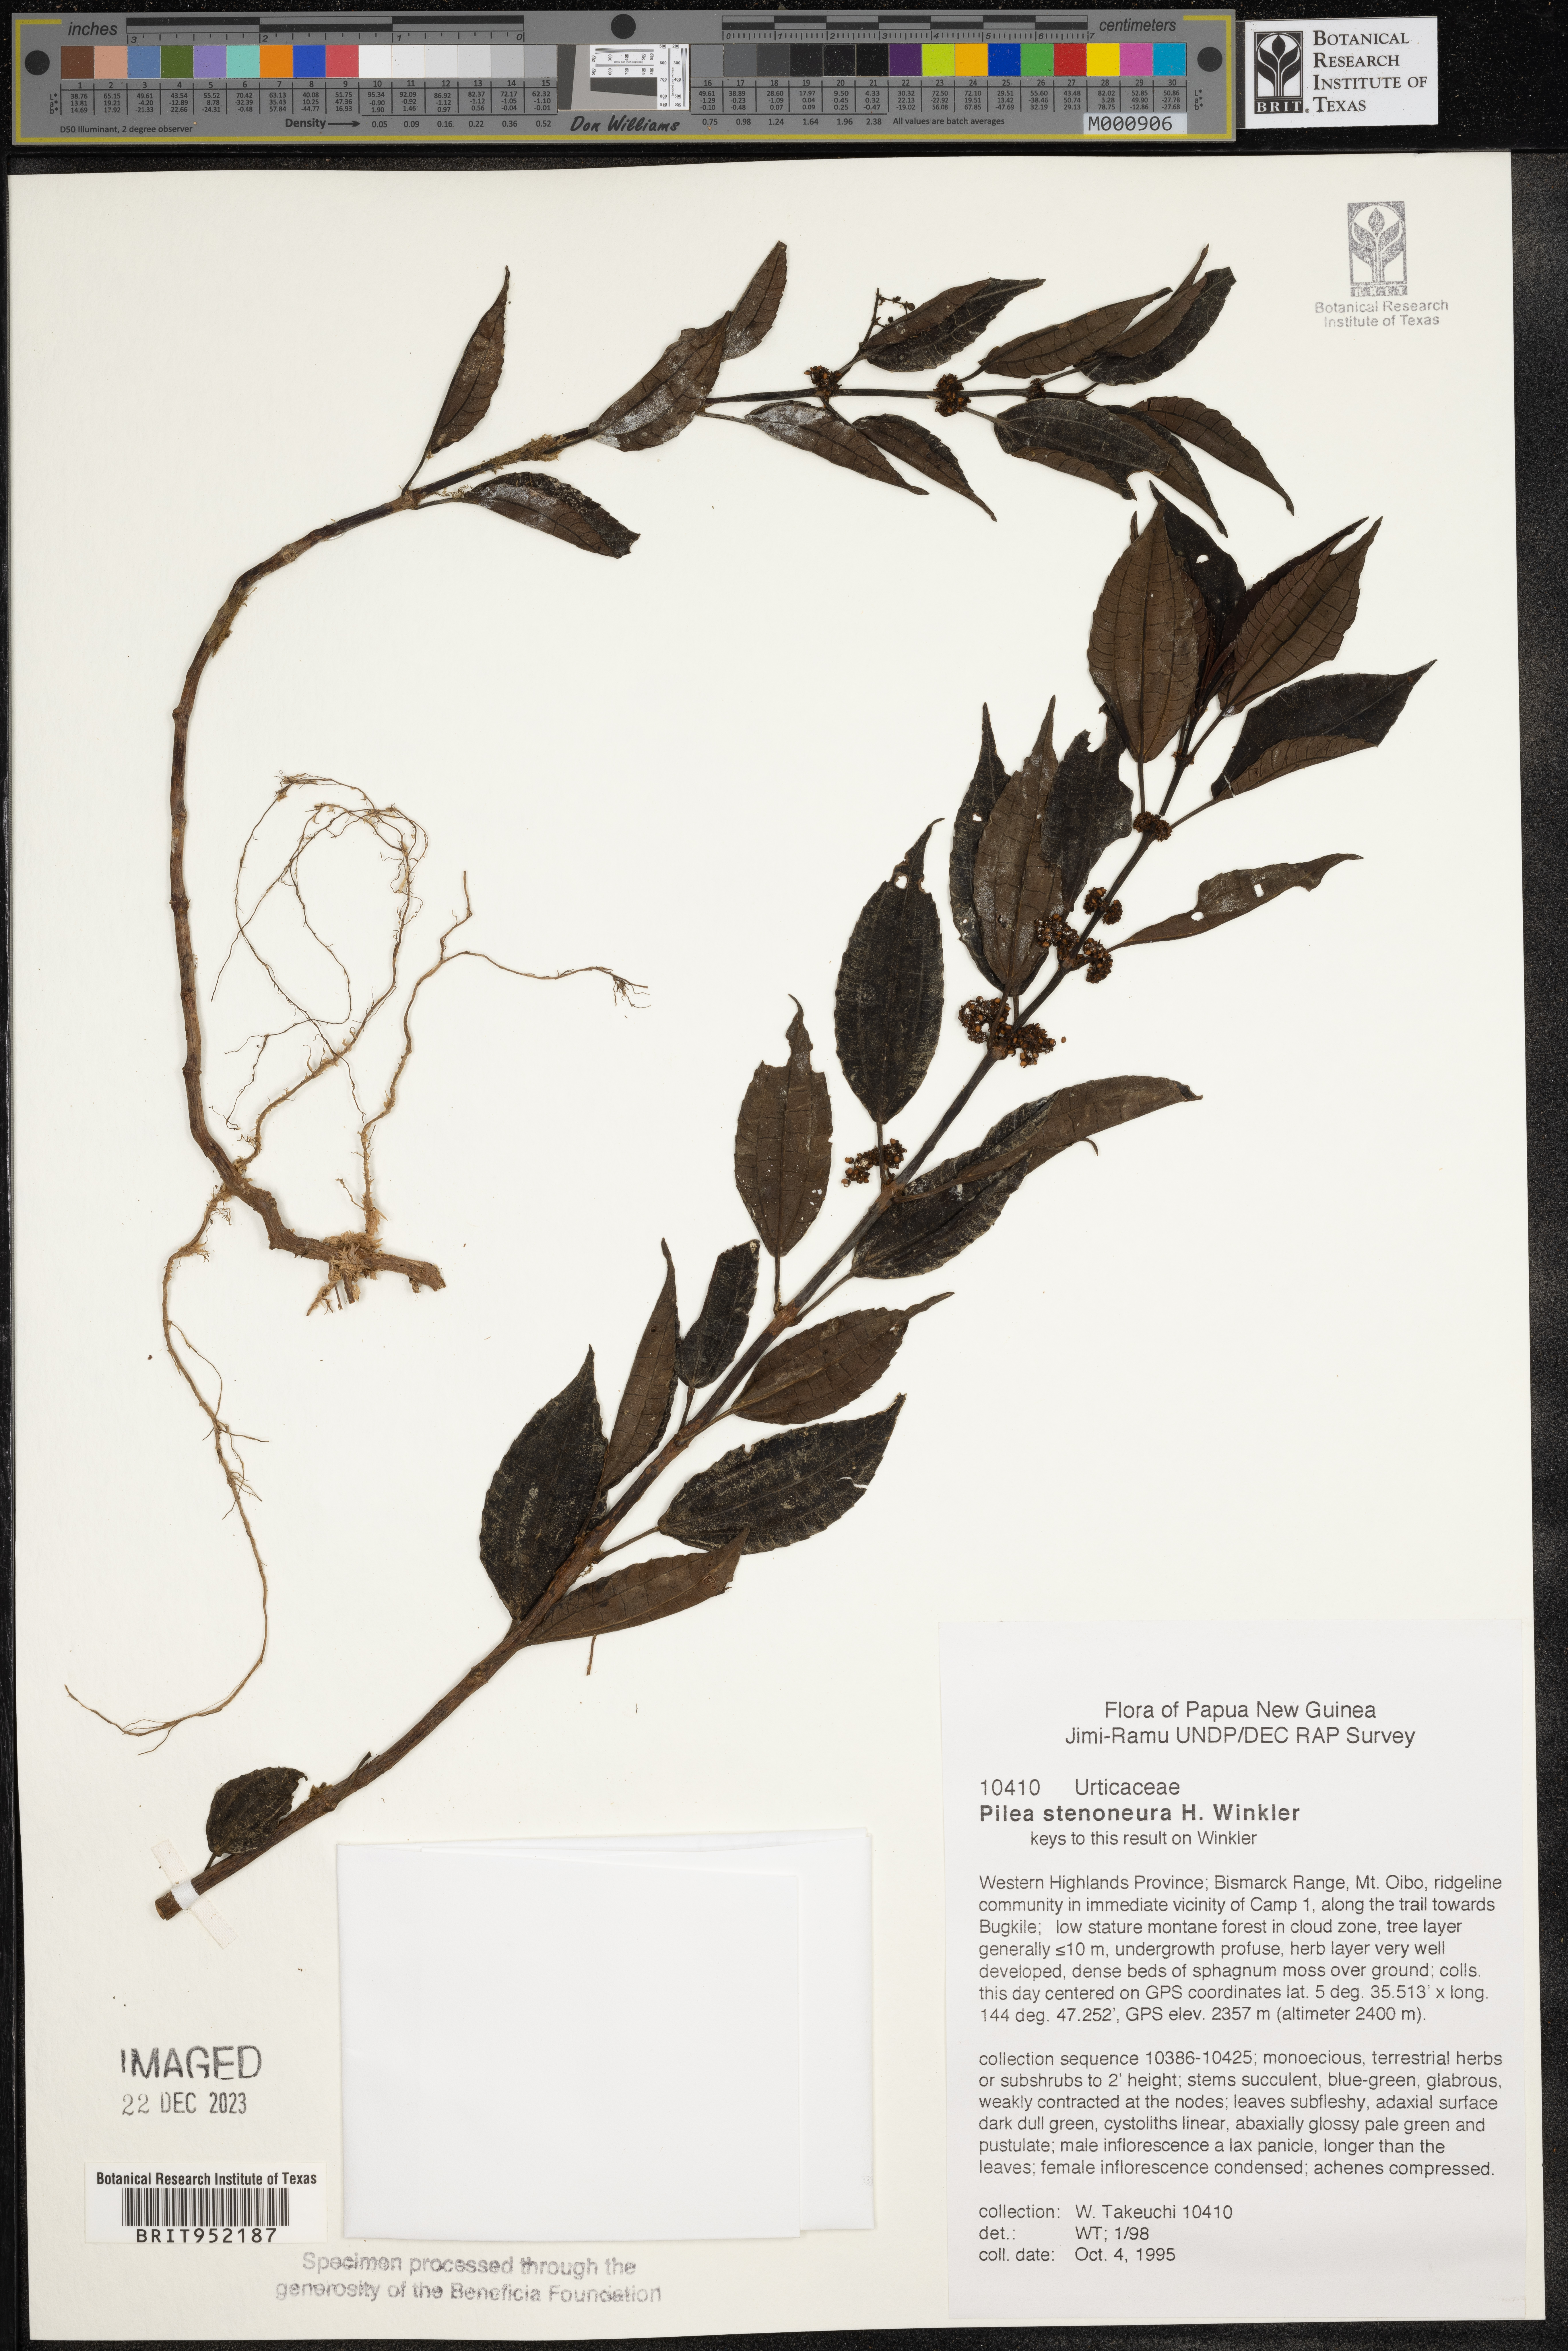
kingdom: Plantae
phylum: Tracheophyta
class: Magnoliopsida
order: Rosales
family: Urticaceae
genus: Pilea
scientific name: Pilea
